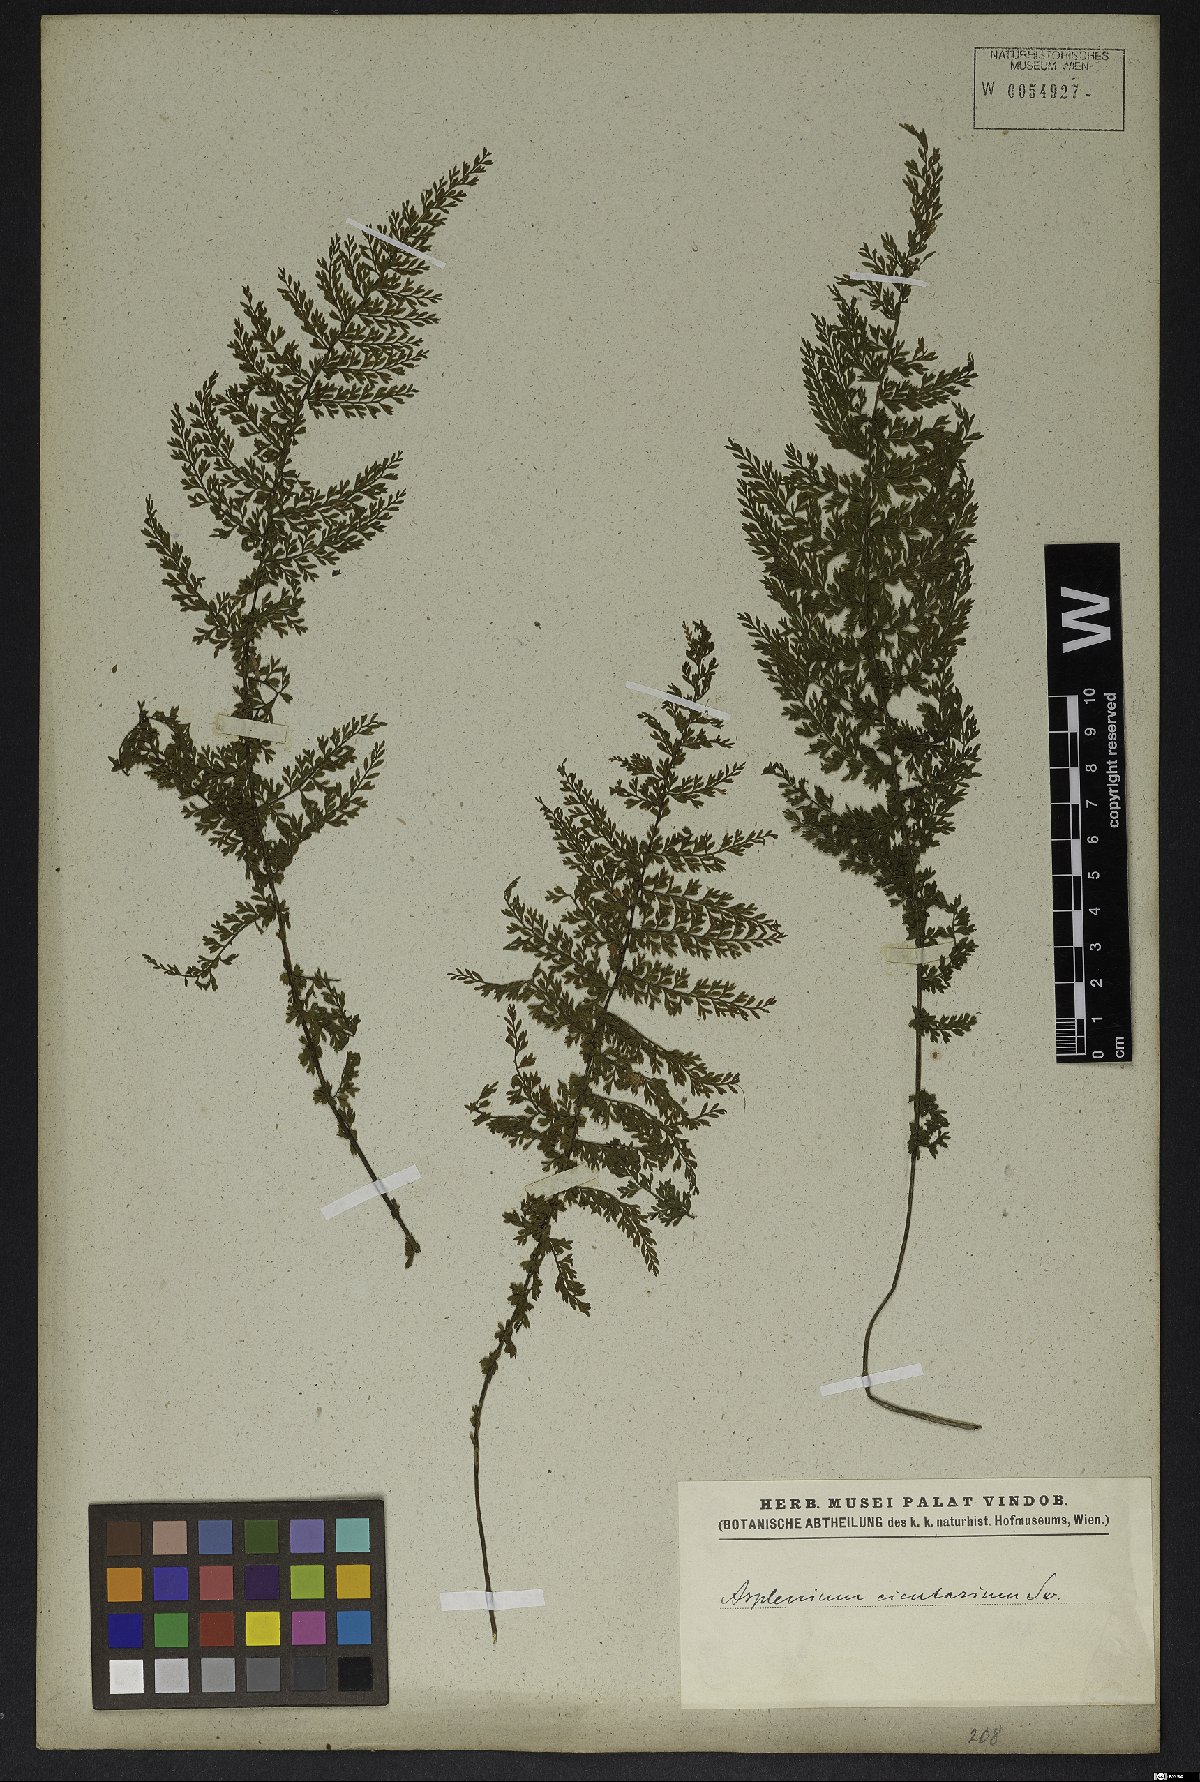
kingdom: Plantae
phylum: Tracheophyta
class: Polypodiopsida
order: Polypodiales
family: Aspleniaceae
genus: Asplenium
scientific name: Asplenium cristatum
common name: Parsley spleenwort
